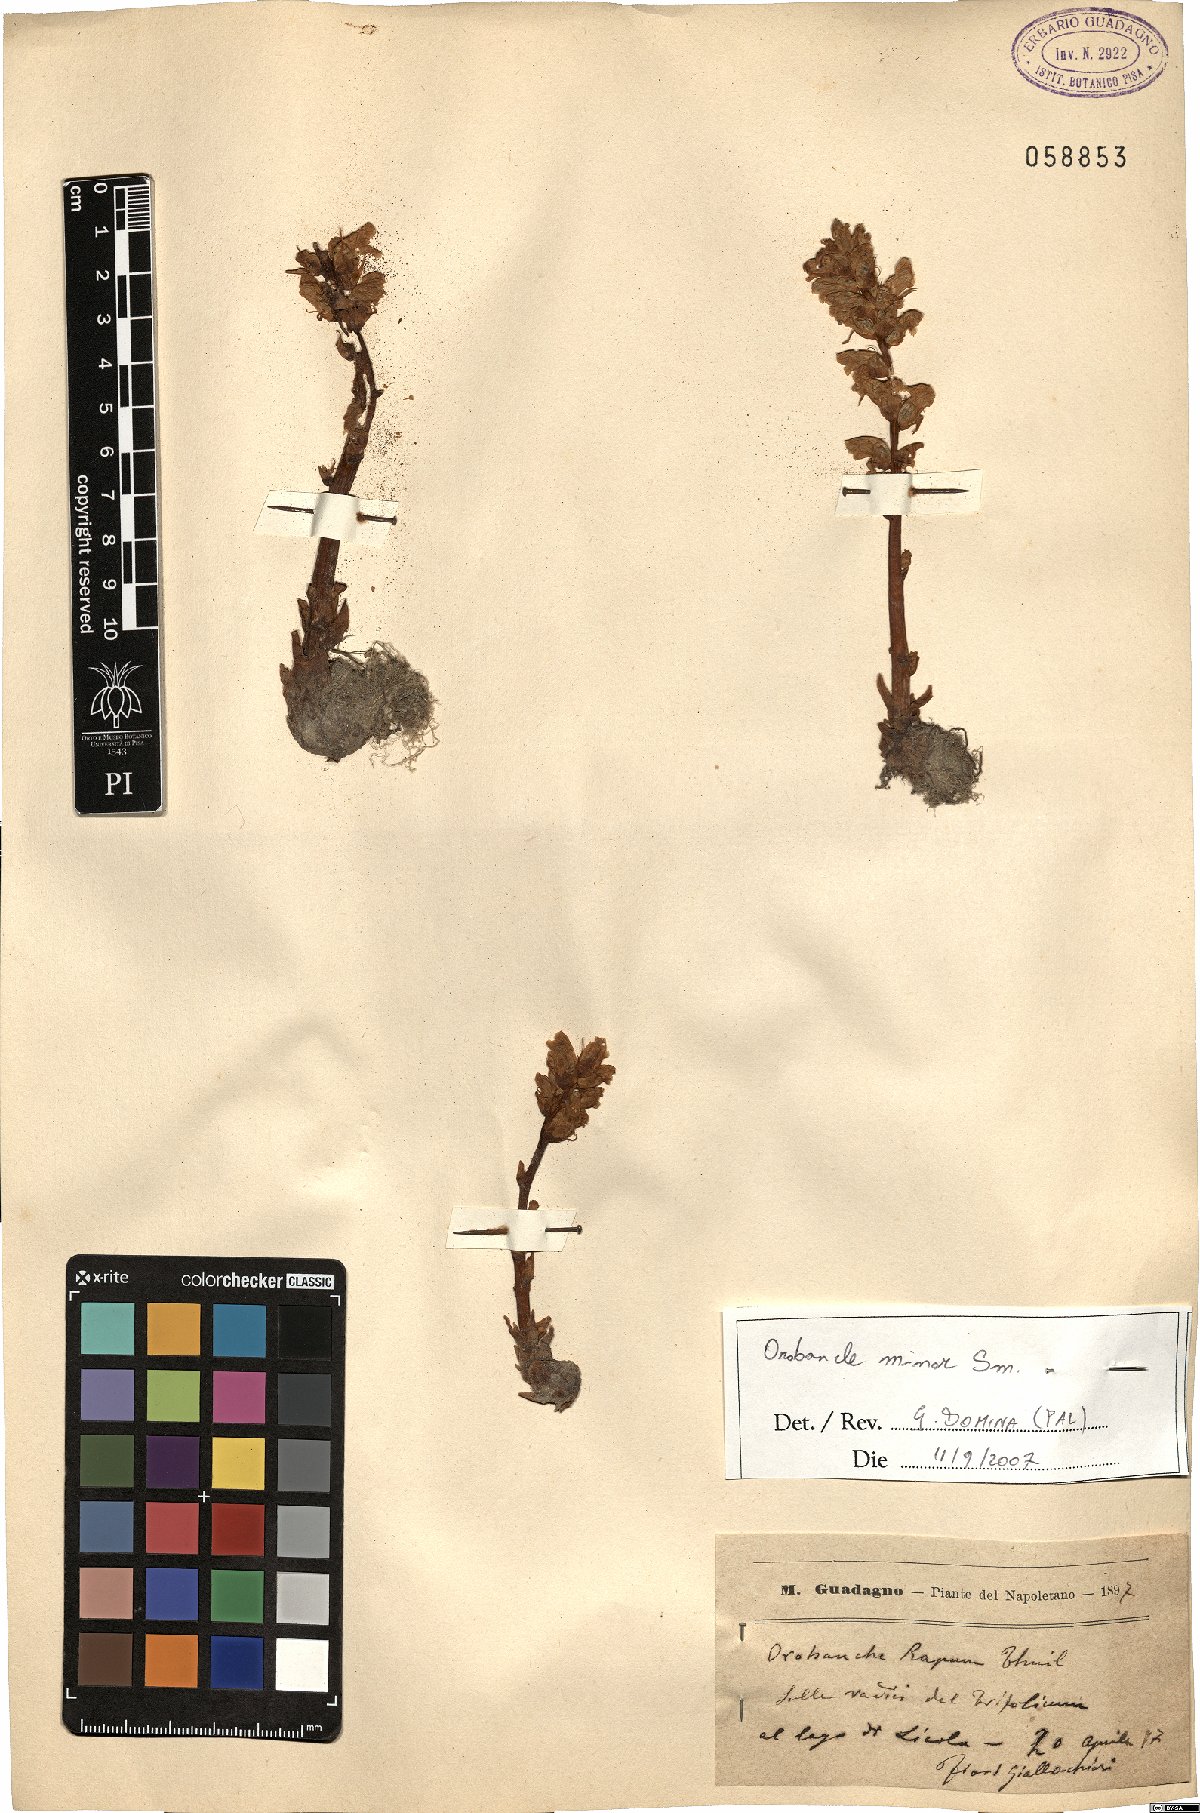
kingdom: Plantae
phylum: Tracheophyta
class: Magnoliopsida
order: Lamiales
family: Orobanchaceae
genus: Orobanche
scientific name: Orobanche minor
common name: Common broomrape
